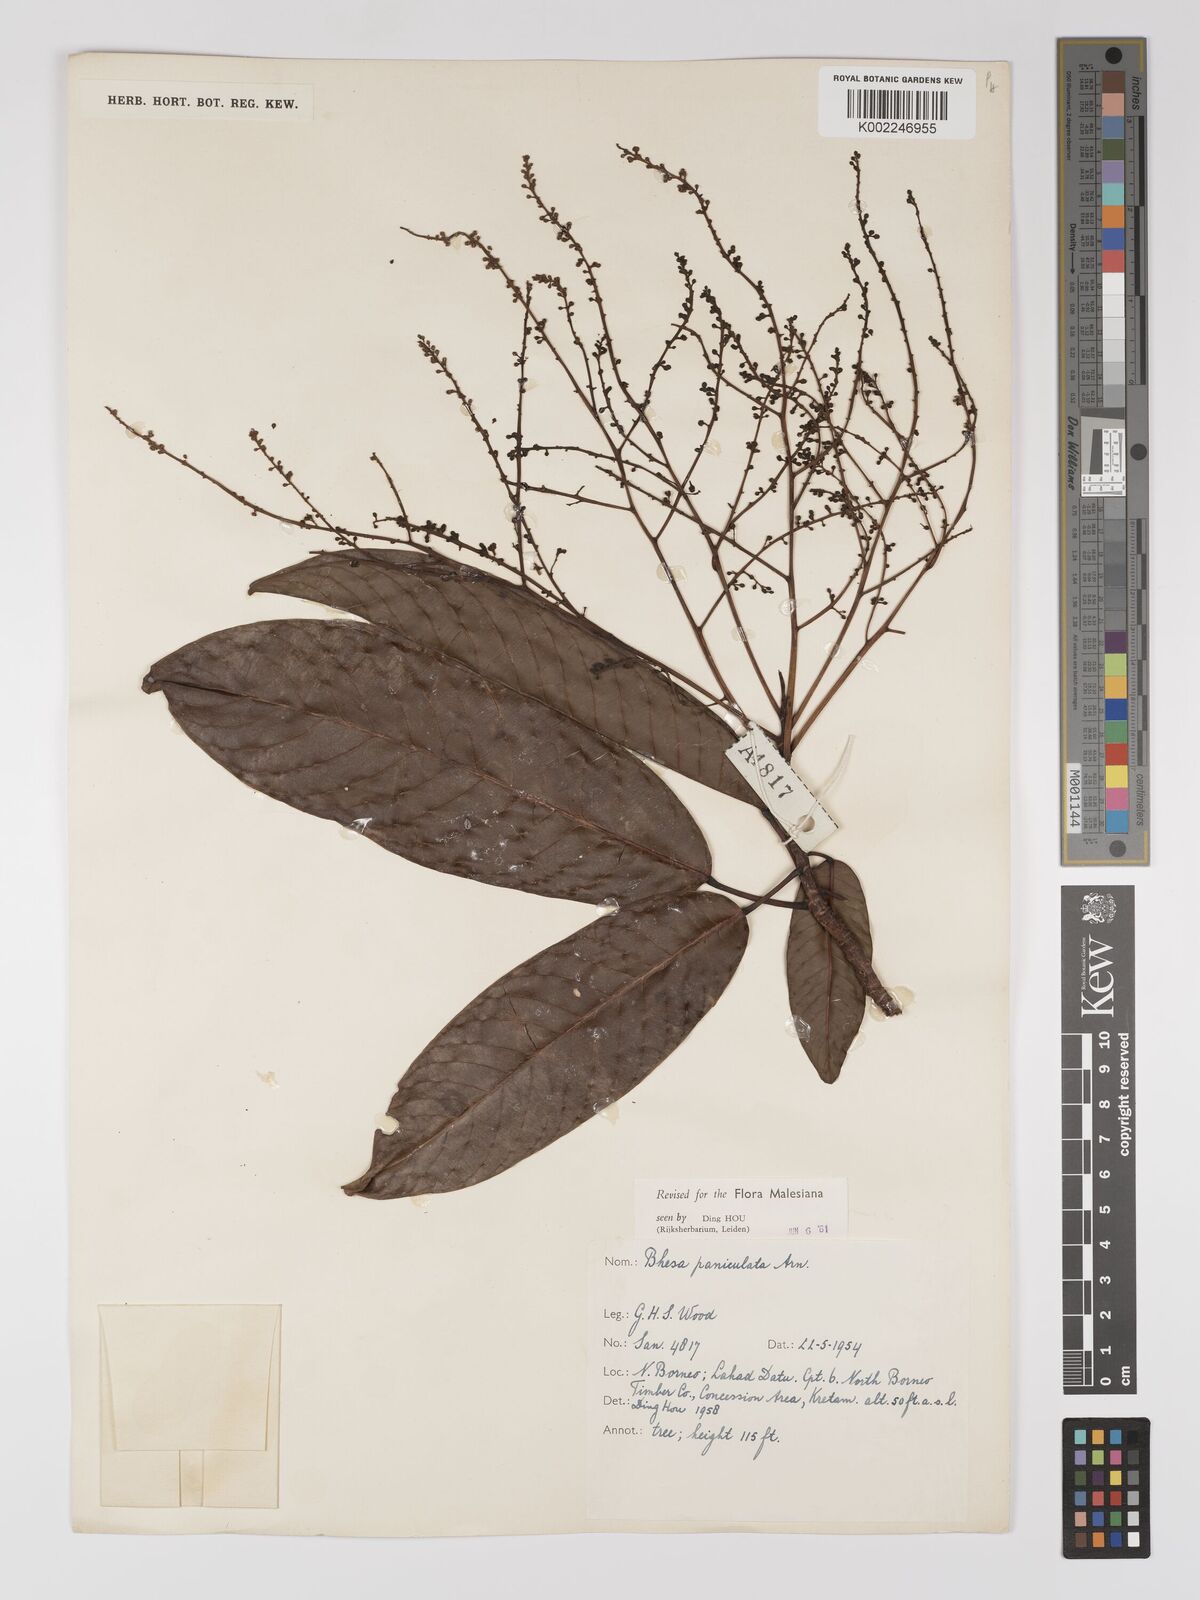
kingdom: Plantae
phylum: Tracheophyta
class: Magnoliopsida
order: Malpighiales
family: Centroplacaceae
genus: Bhesa
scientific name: Bhesa paniculata
